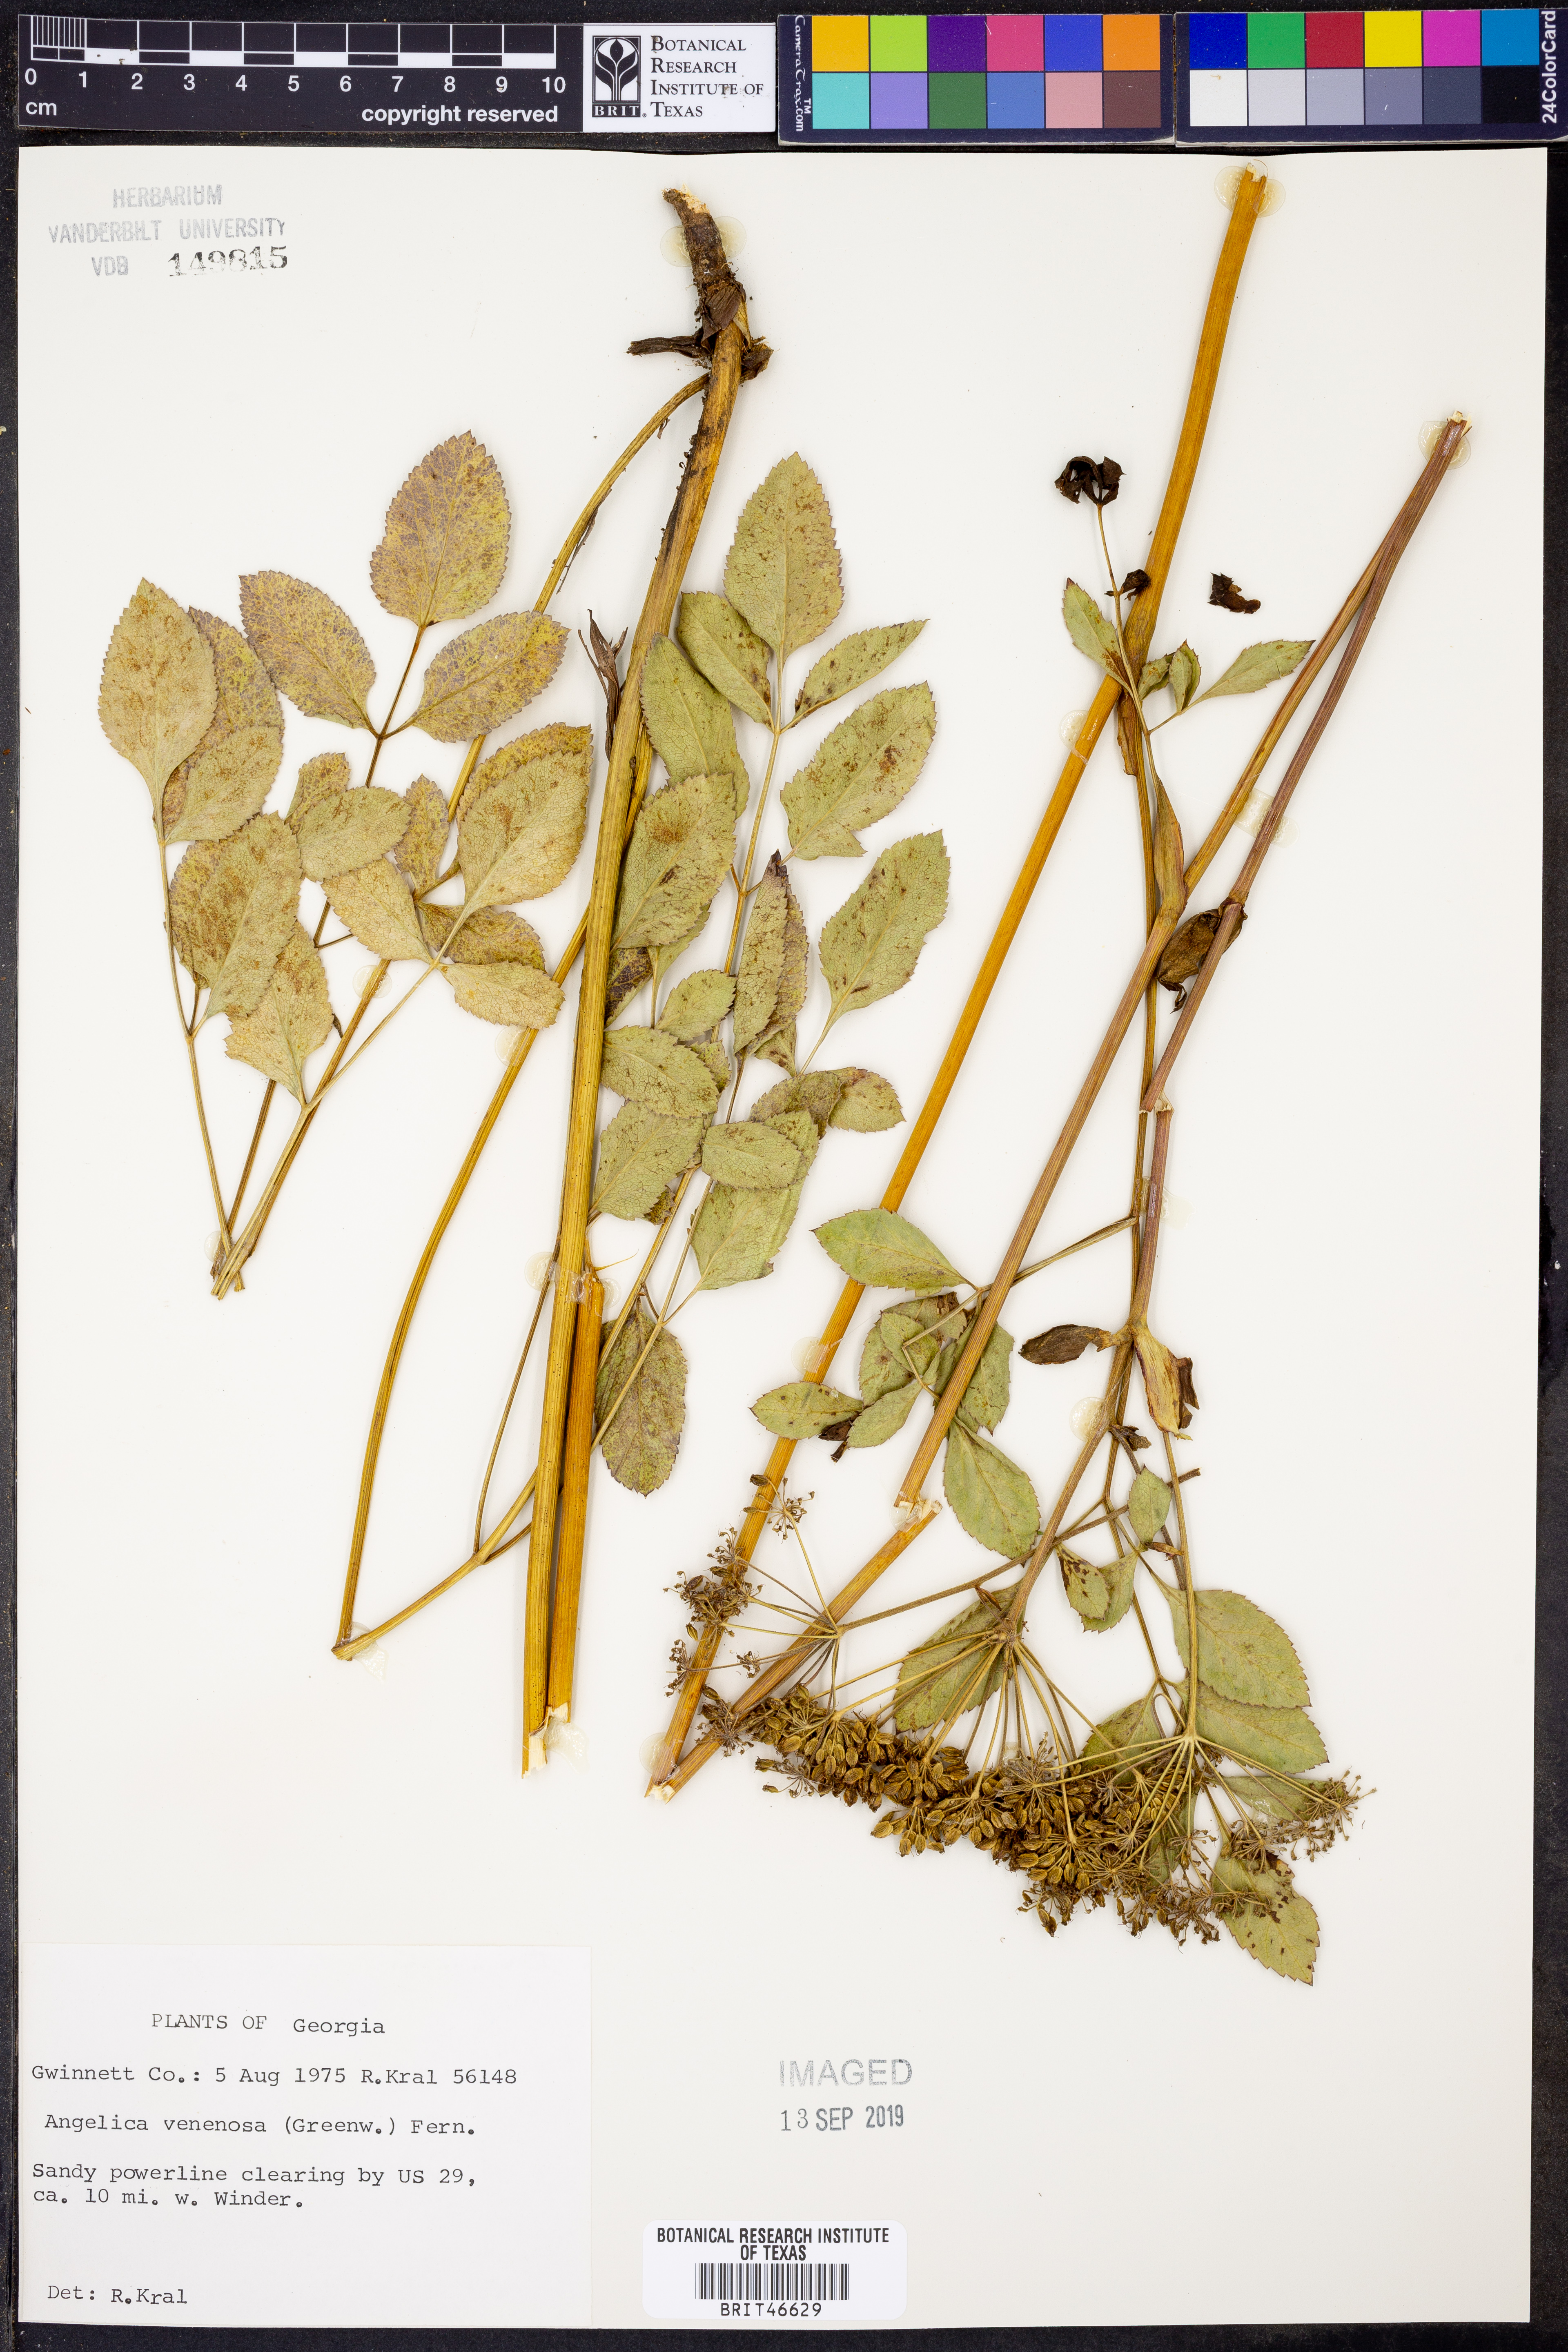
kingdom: Plantae
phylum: Tracheophyta
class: Magnoliopsida
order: Apiales
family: Apiaceae
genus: Angelica
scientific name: Angelica venenosa
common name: Hairy angelica
